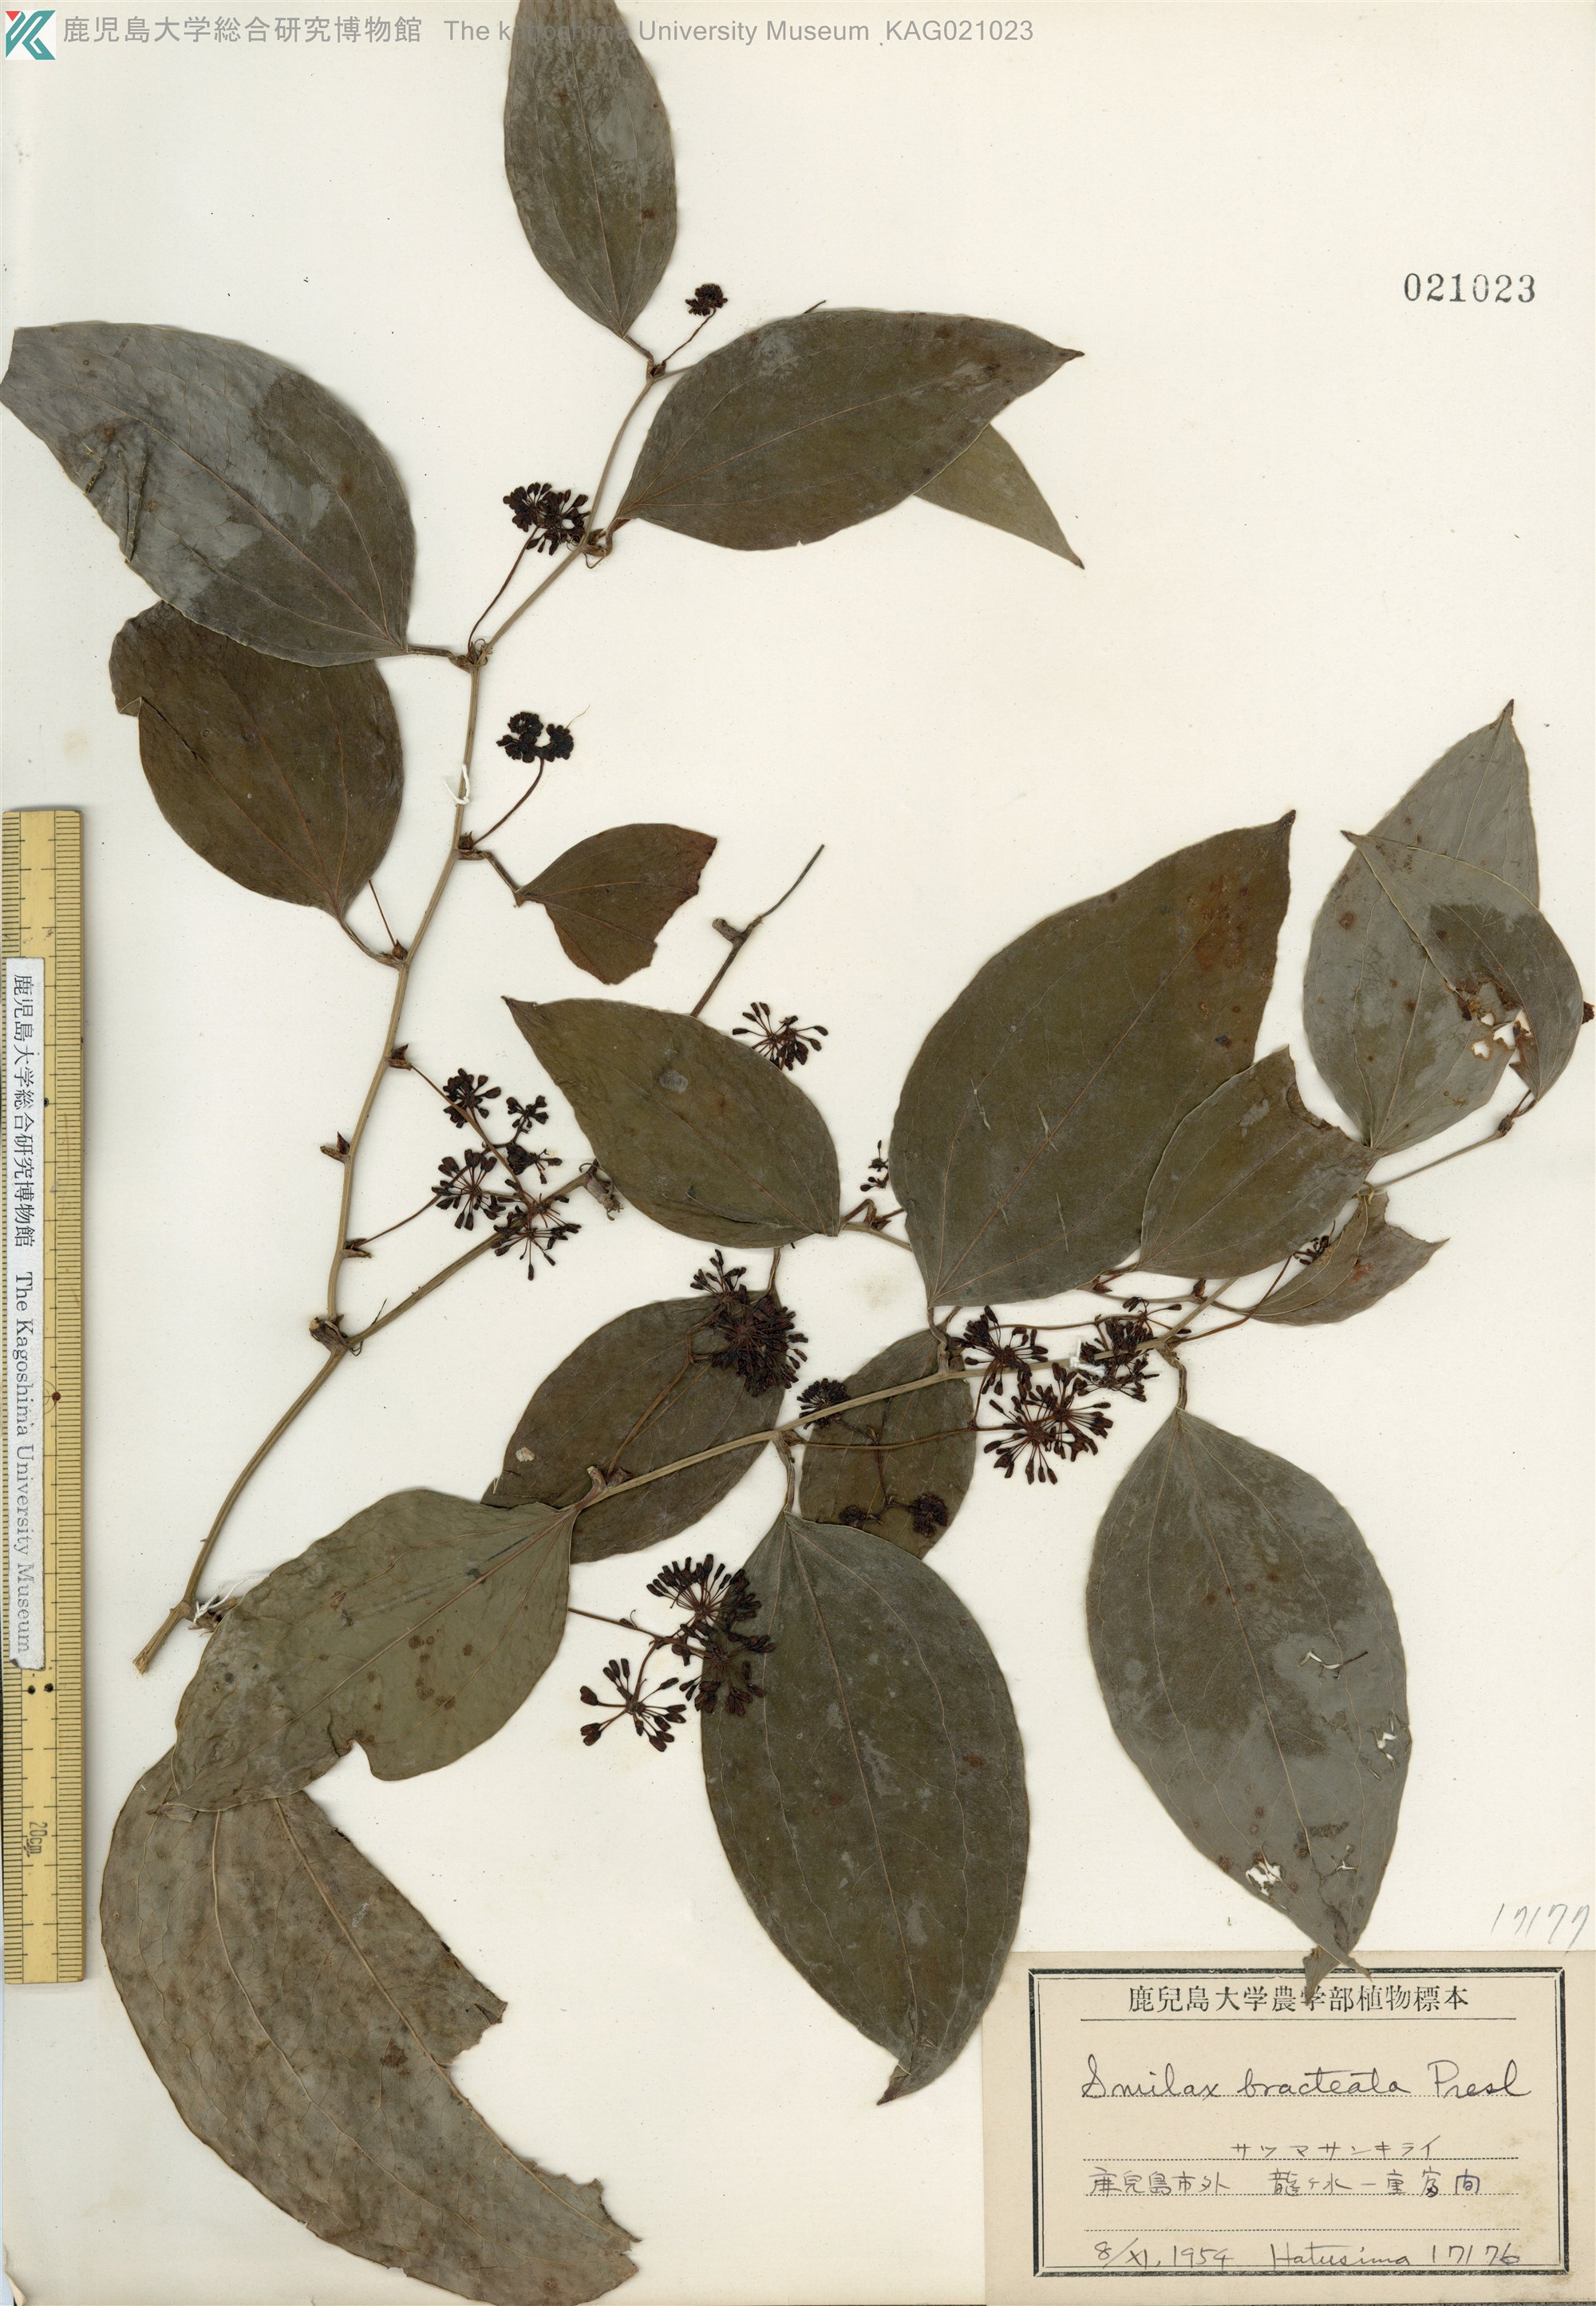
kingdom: Plantae
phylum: Tracheophyta
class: Liliopsida
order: Liliales
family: Smilacaceae
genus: Smilax
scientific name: Smilax bracteata
